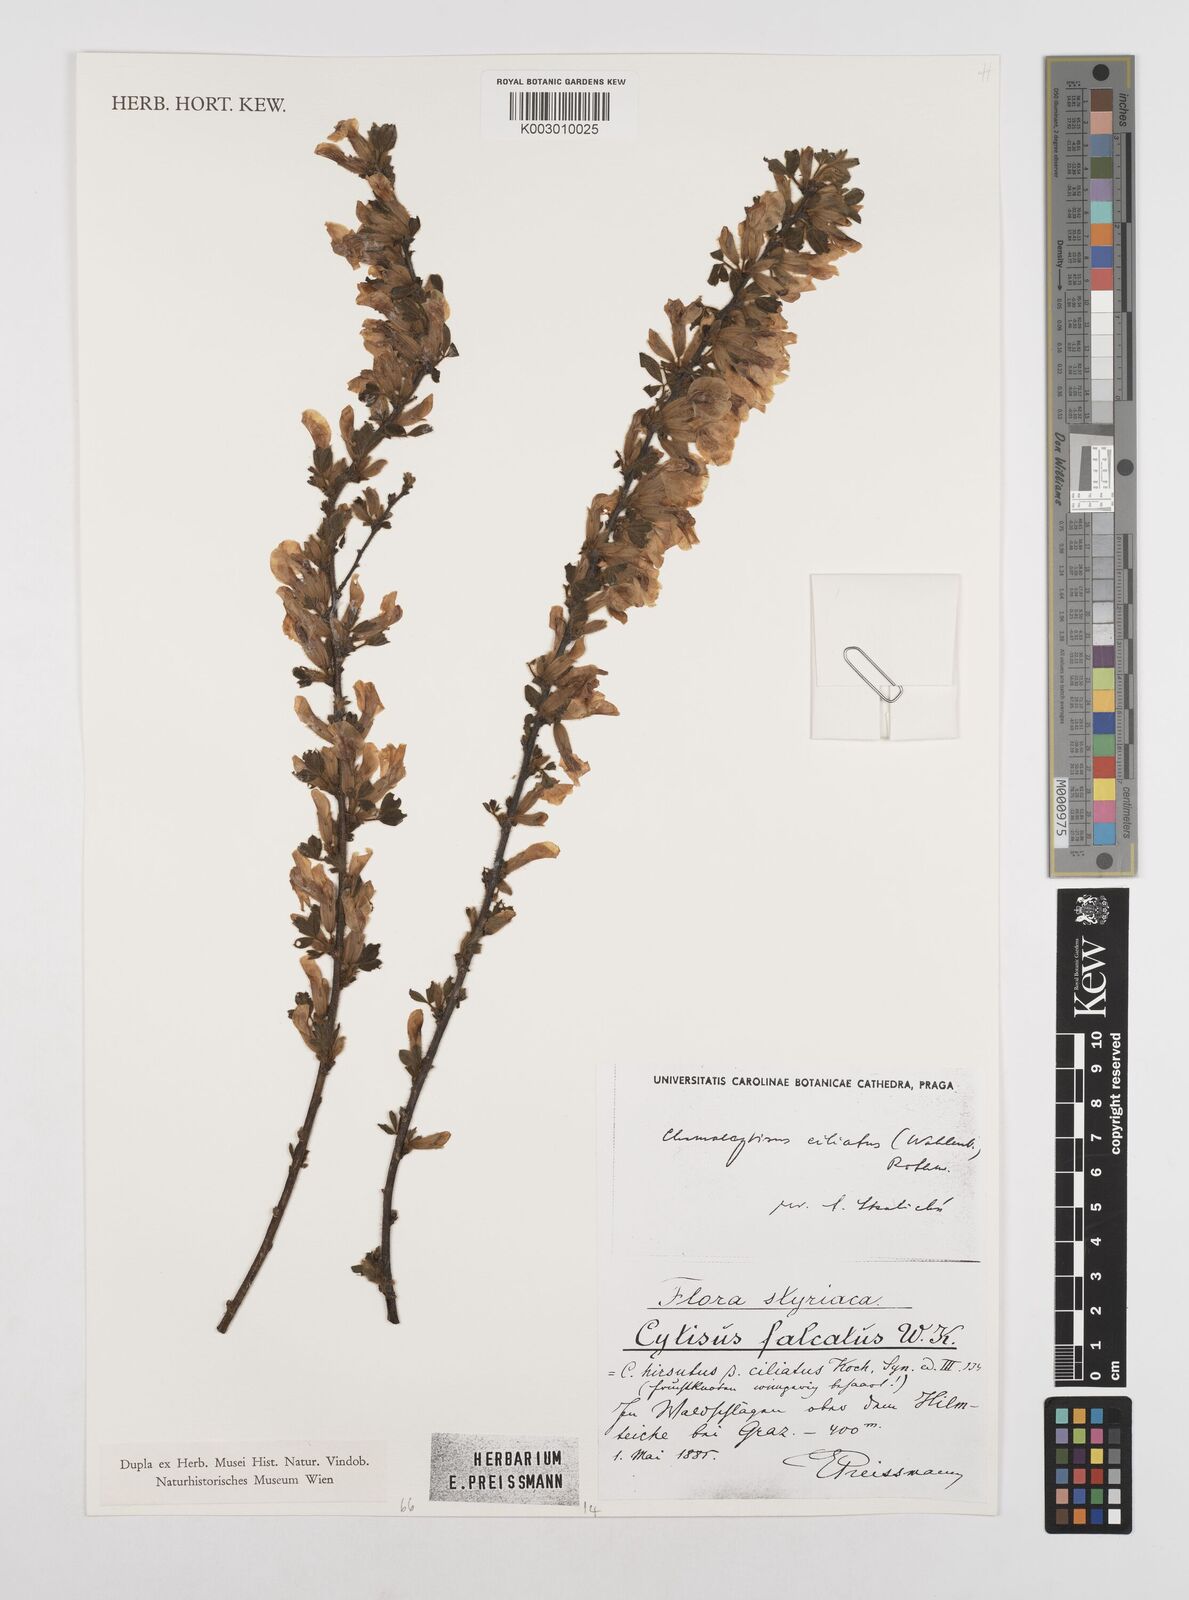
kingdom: Plantae
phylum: Tracheophyta
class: Magnoliopsida
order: Fabales
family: Fabaceae
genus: Chamaecytisus
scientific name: Chamaecytisus hirsutus
